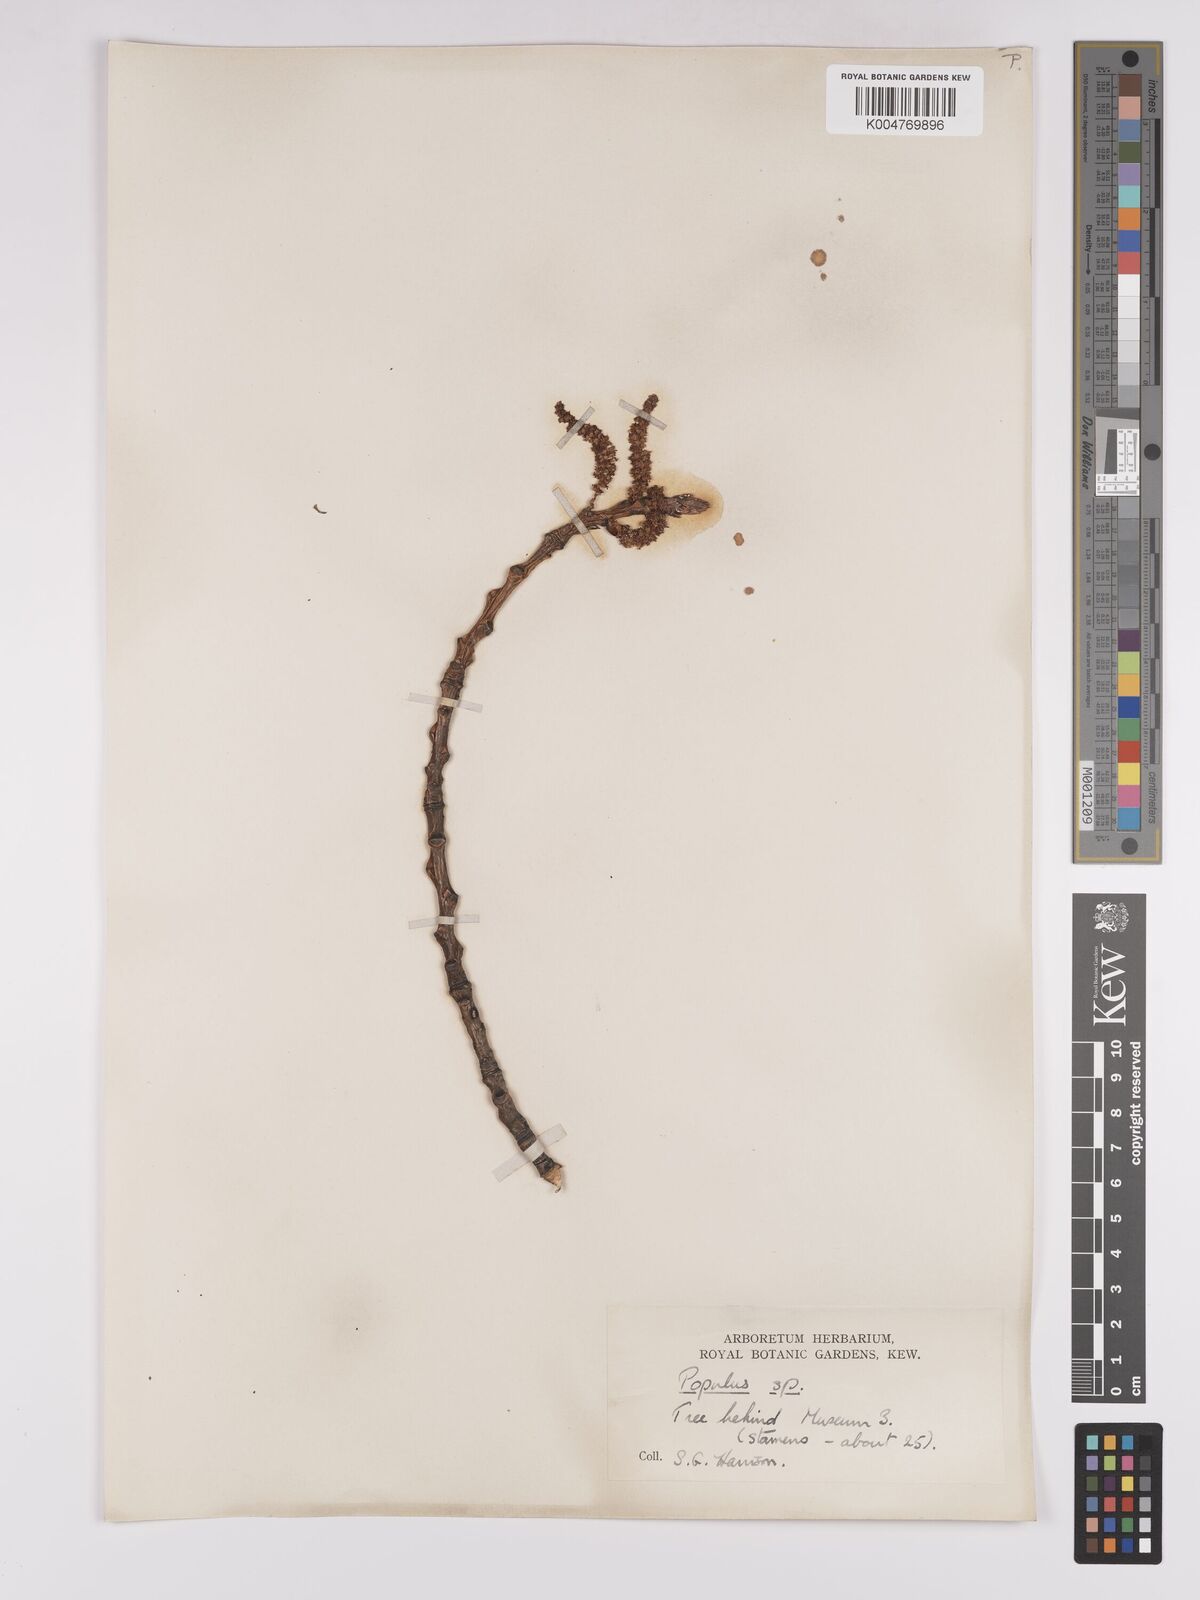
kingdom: Plantae
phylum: Tracheophyta
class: Magnoliopsida
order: Malpighiales
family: Salicaceae
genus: Populus
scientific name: Populus dubia
